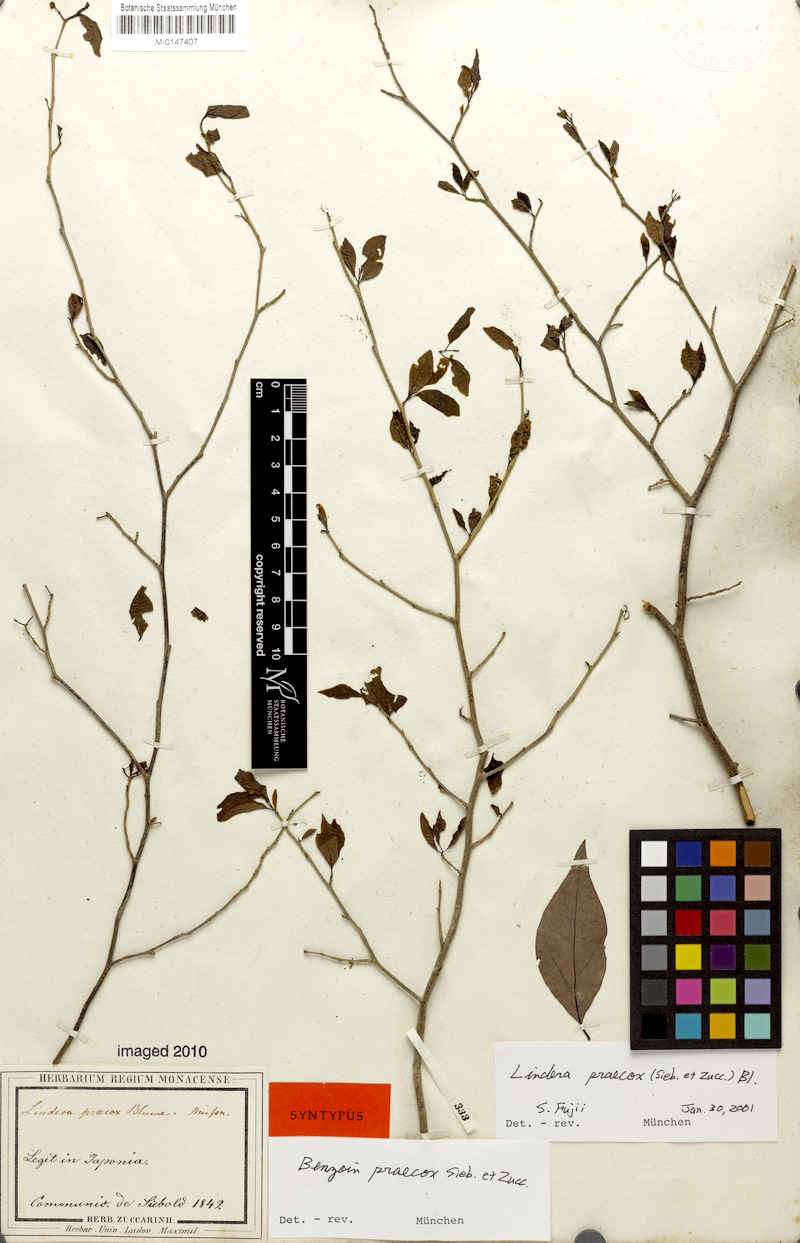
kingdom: Plantae
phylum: Tracheophyta
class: Magnoliopsida
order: Laurales
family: Lauraceae
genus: Lindera
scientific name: Lindera praecox
